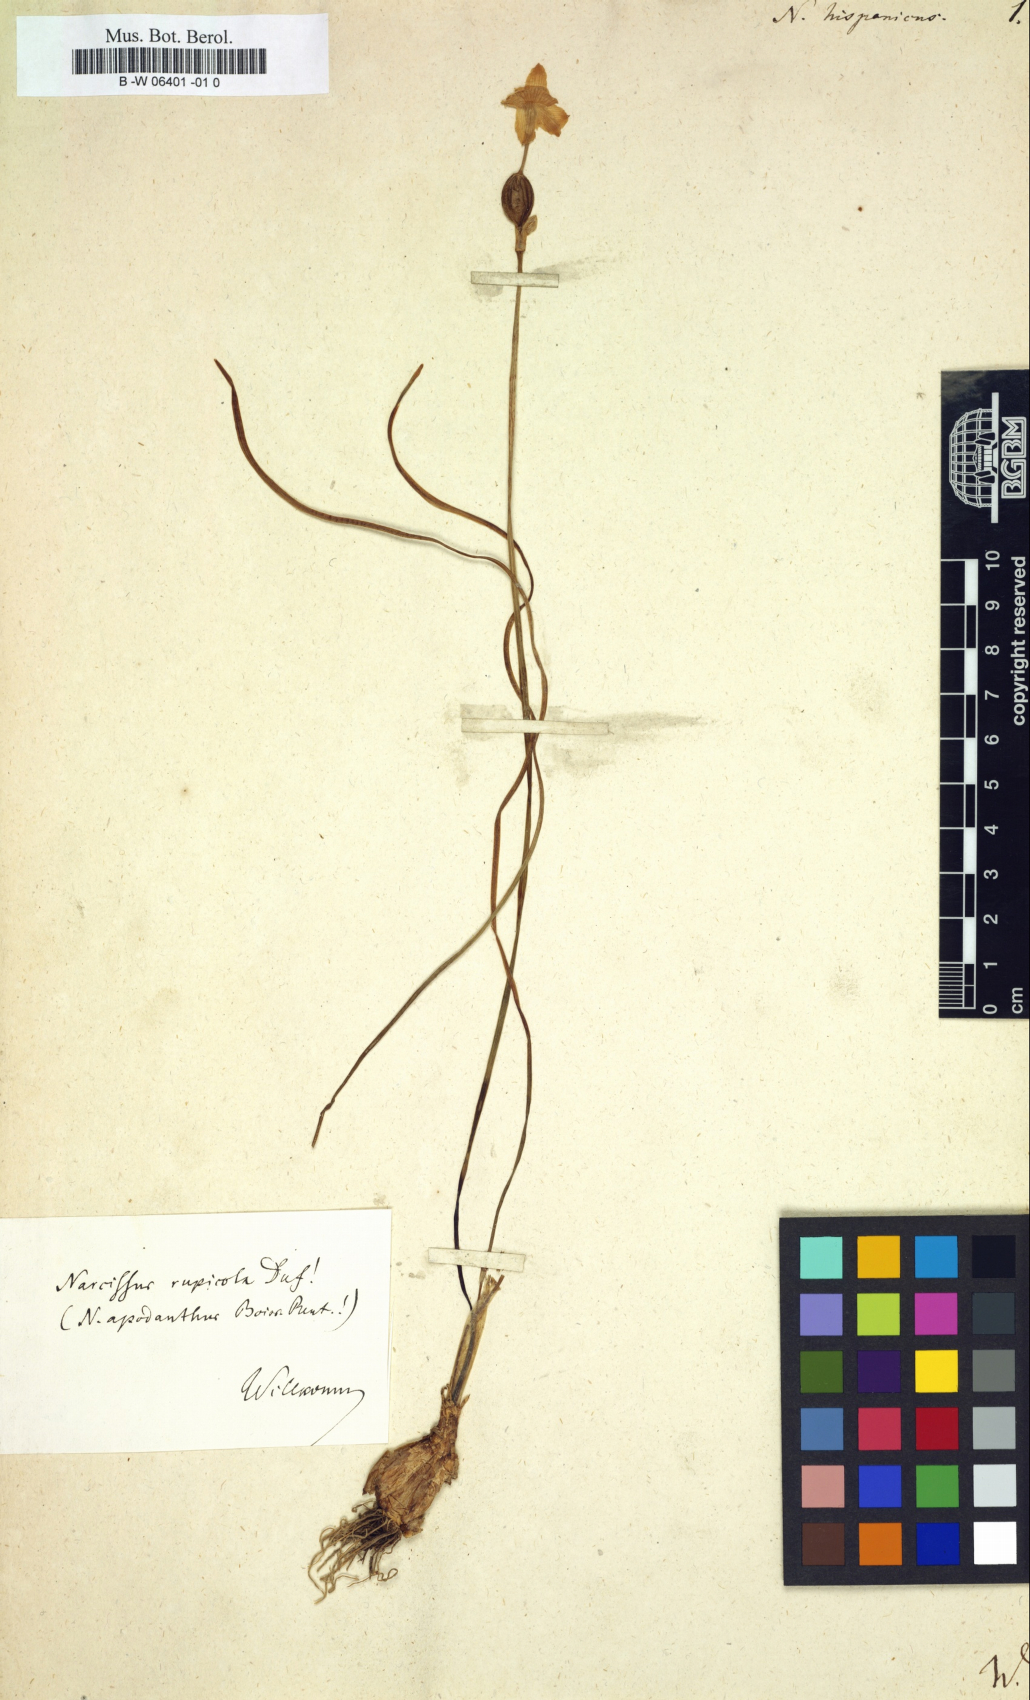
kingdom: Plantae
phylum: Tracheophyta
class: Liliopsida
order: Asparagales
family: Amaryllidaceae
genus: Narcissus
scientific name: Narcissus hispanicus
